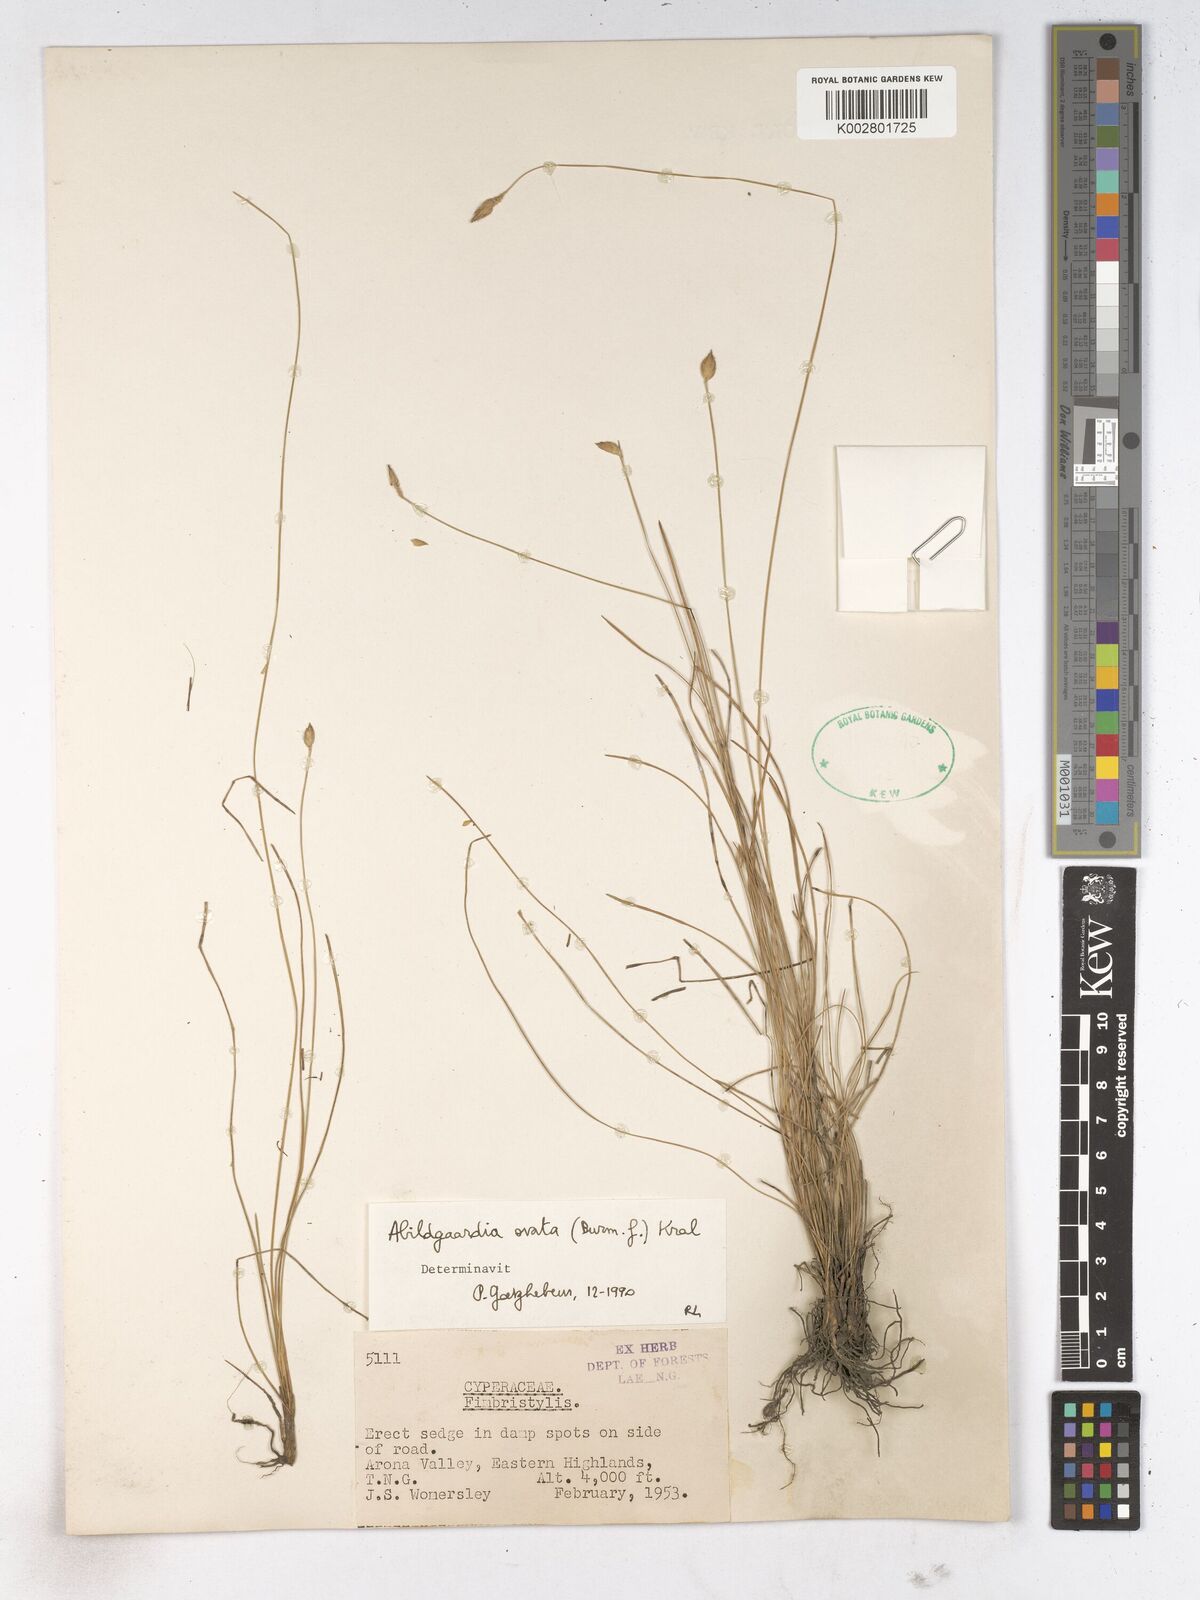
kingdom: Plantae
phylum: Tracheophyta
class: Liliopsida
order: Poales
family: Cyperaceae
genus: Abildgaardia
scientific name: Abildgaardia ovata
